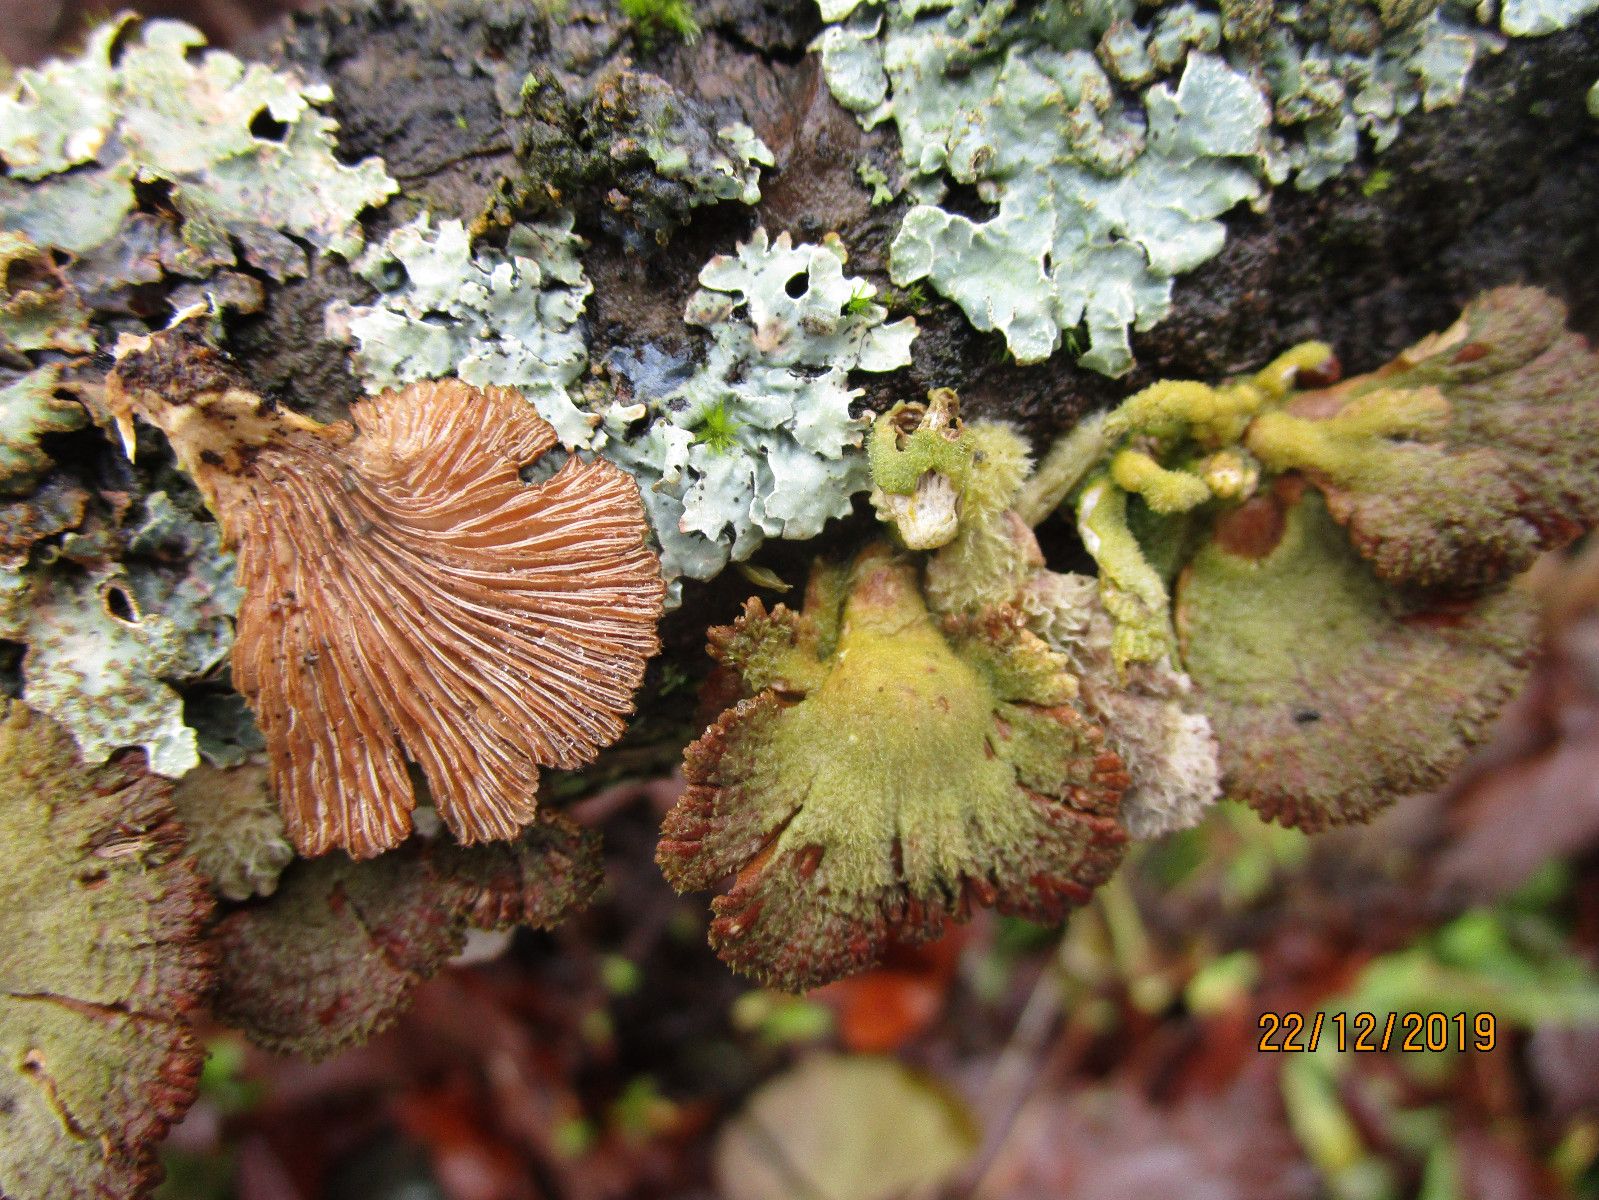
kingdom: Fungi
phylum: Basidiomycota
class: Agaricomycetes
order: Agaricales
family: Schizophyllaceae
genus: Schizophyllum
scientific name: Schizophyllum commune
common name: kløvblad
